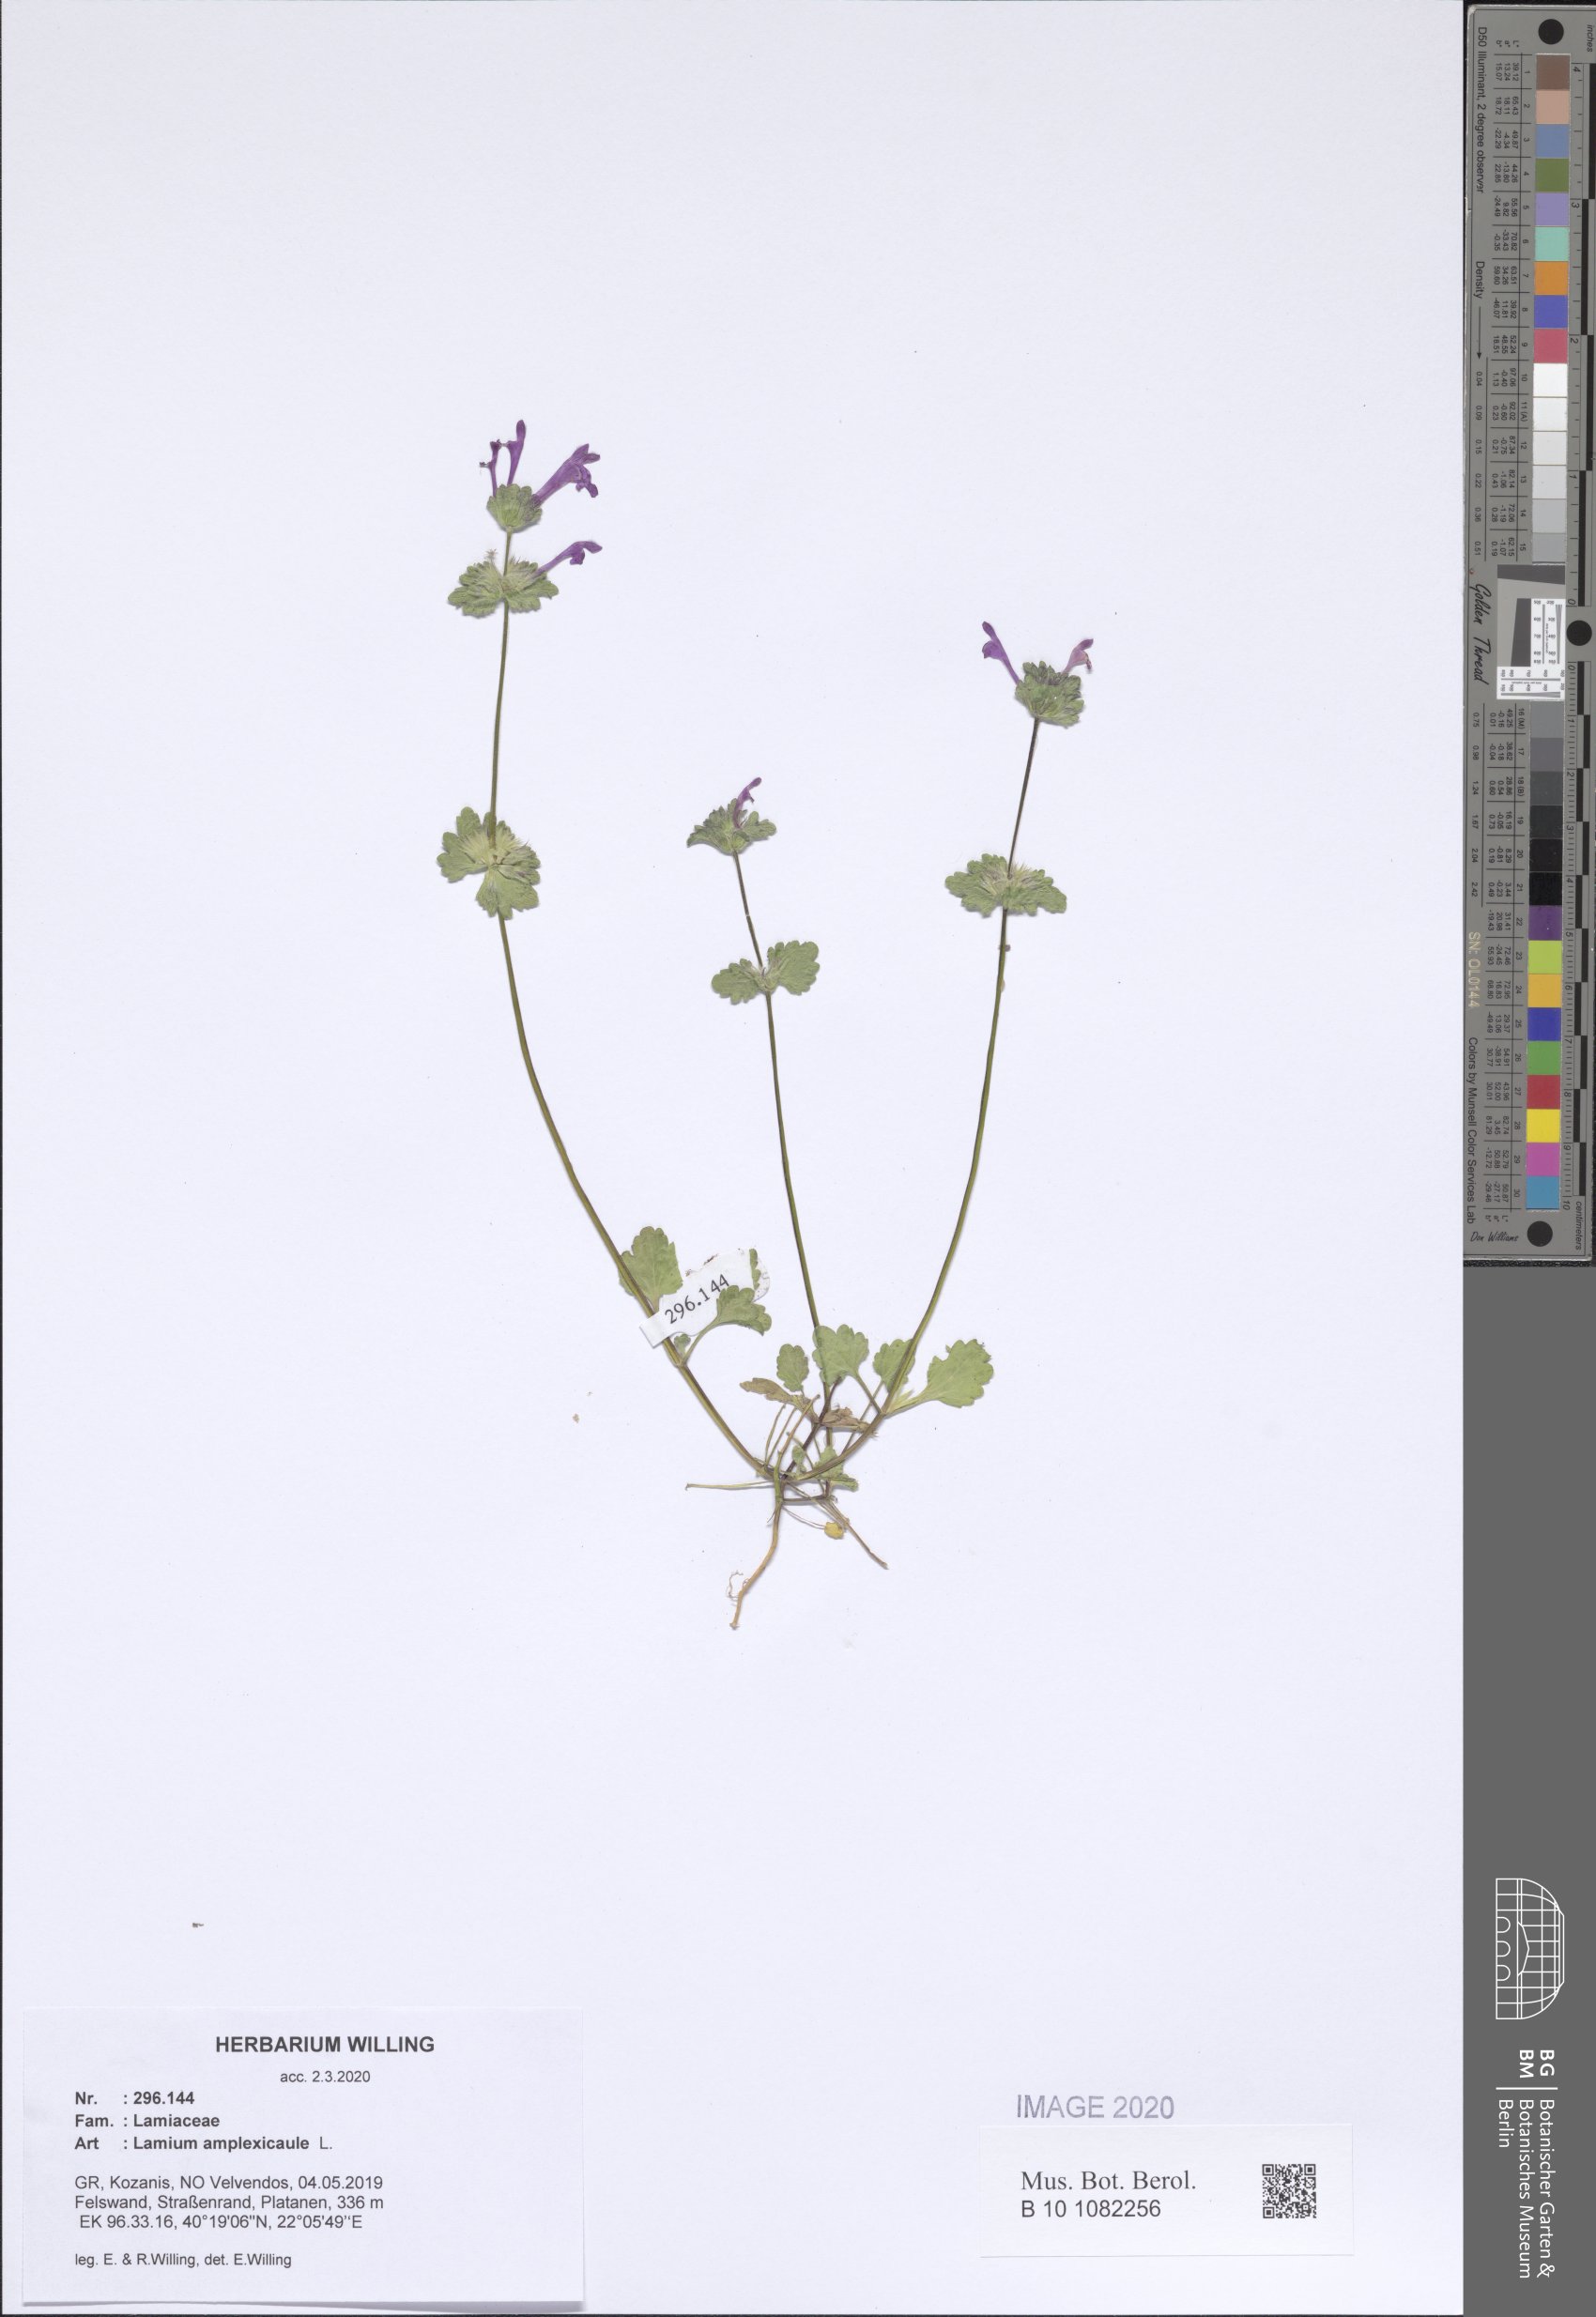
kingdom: Plantae
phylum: Tracheophyta
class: Magnoliopsida
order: Lamiales
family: Lamiaceae
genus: Lamium
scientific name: Lamium amplexicaule
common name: Henbit dead-nettle
